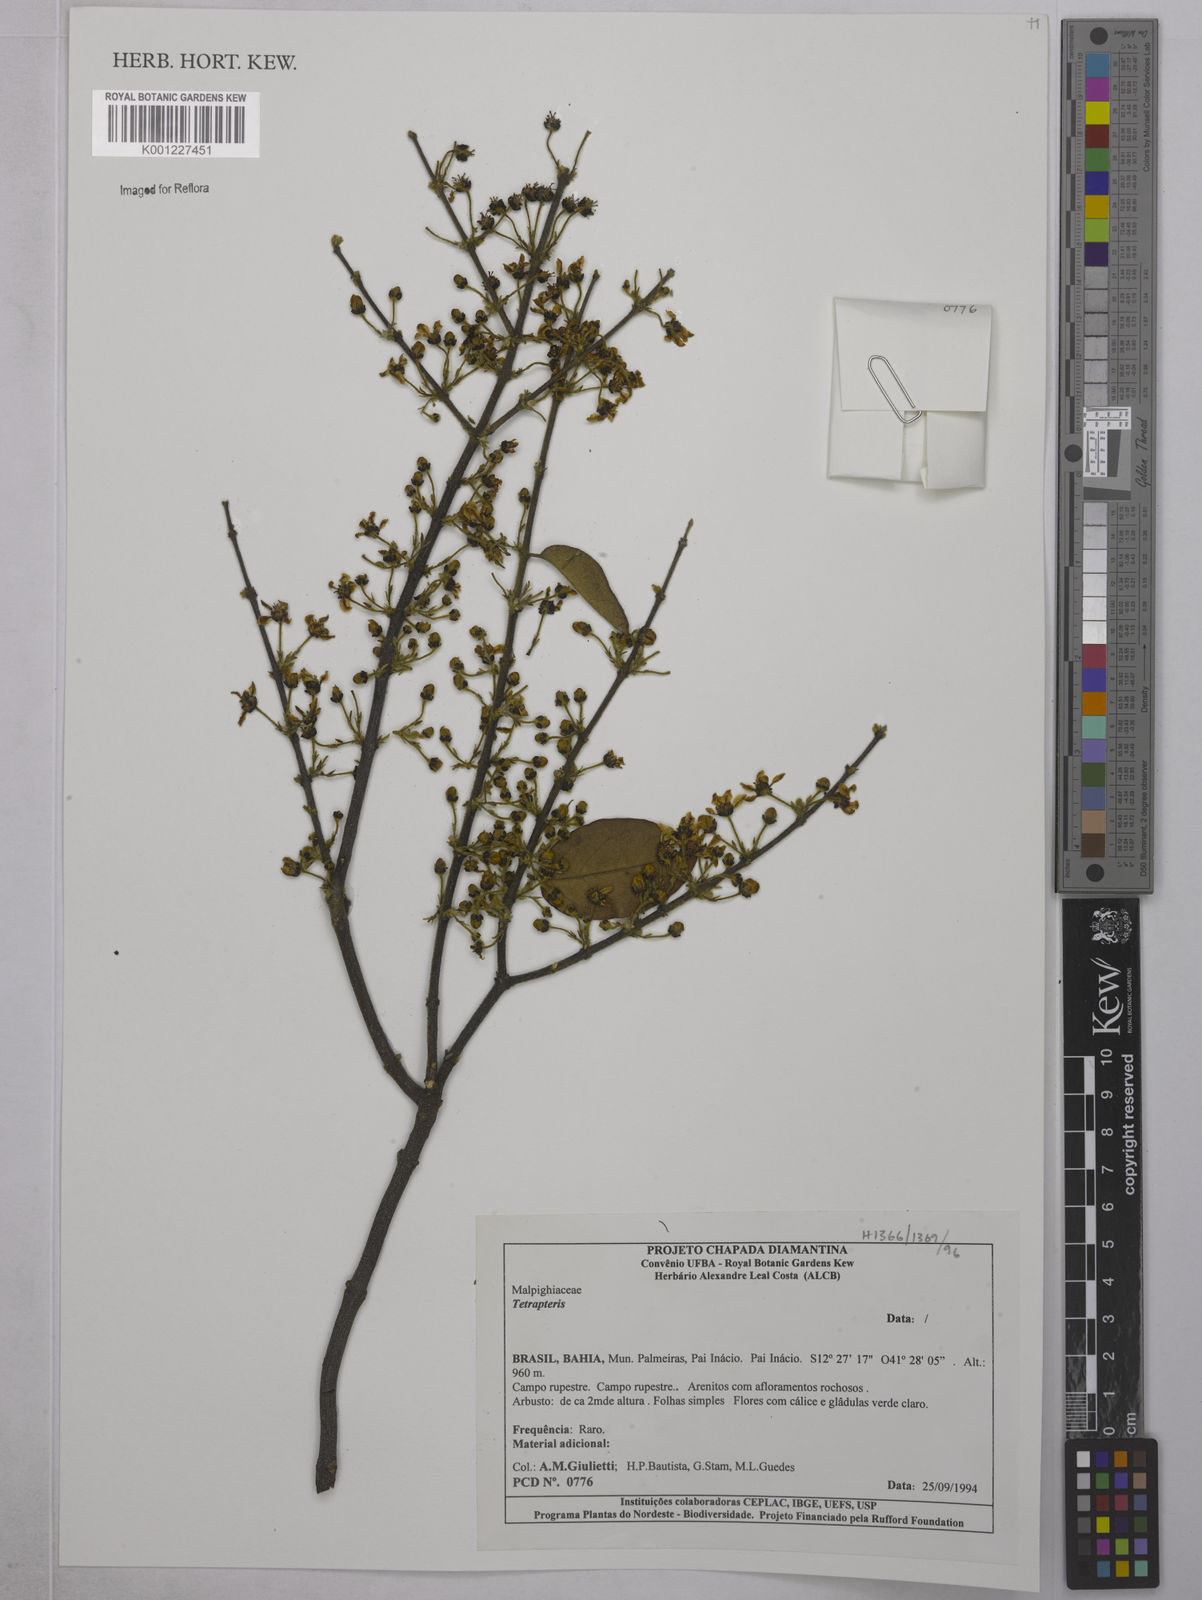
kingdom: Plantae
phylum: Tracheophyta
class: Magnoliopsida
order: Malpighiales
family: Malpighiaceae
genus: Tetrapterys
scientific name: Tetrapterys
